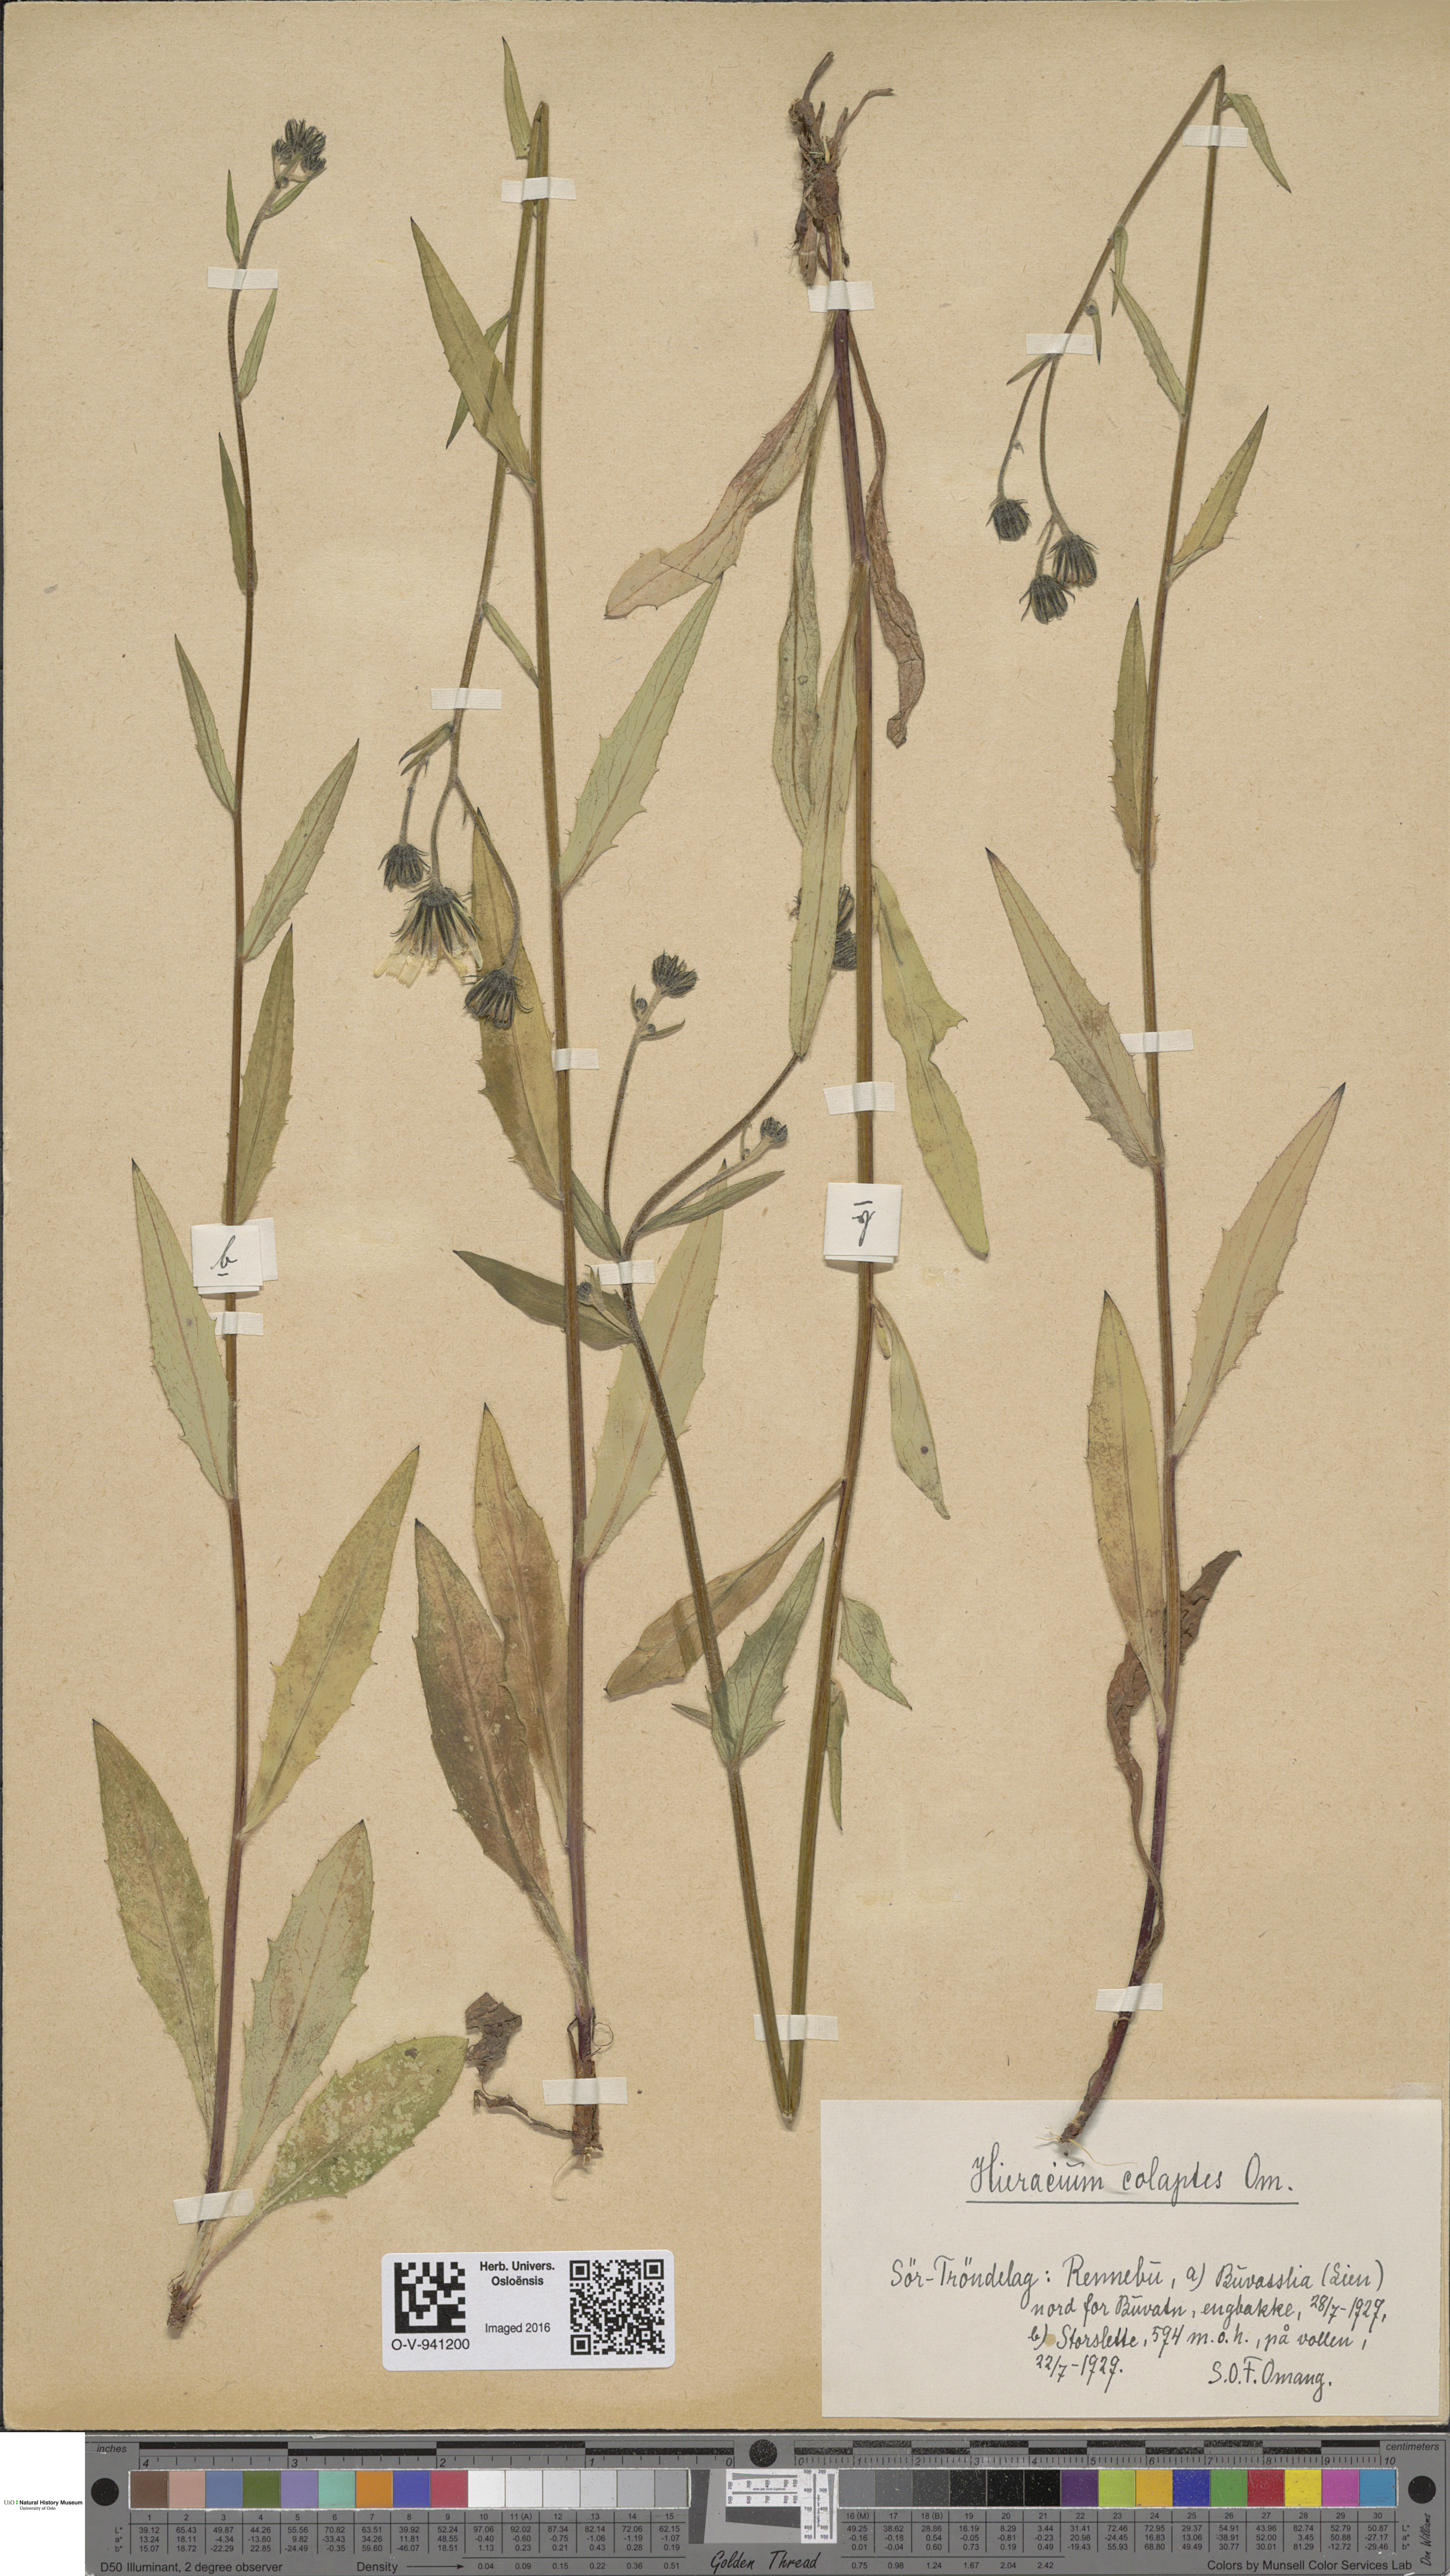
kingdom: Plantae
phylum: Tracheophyta
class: Magnoliopsida
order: Asterales
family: Asteraceae
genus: Hieracium
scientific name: Hieracium
